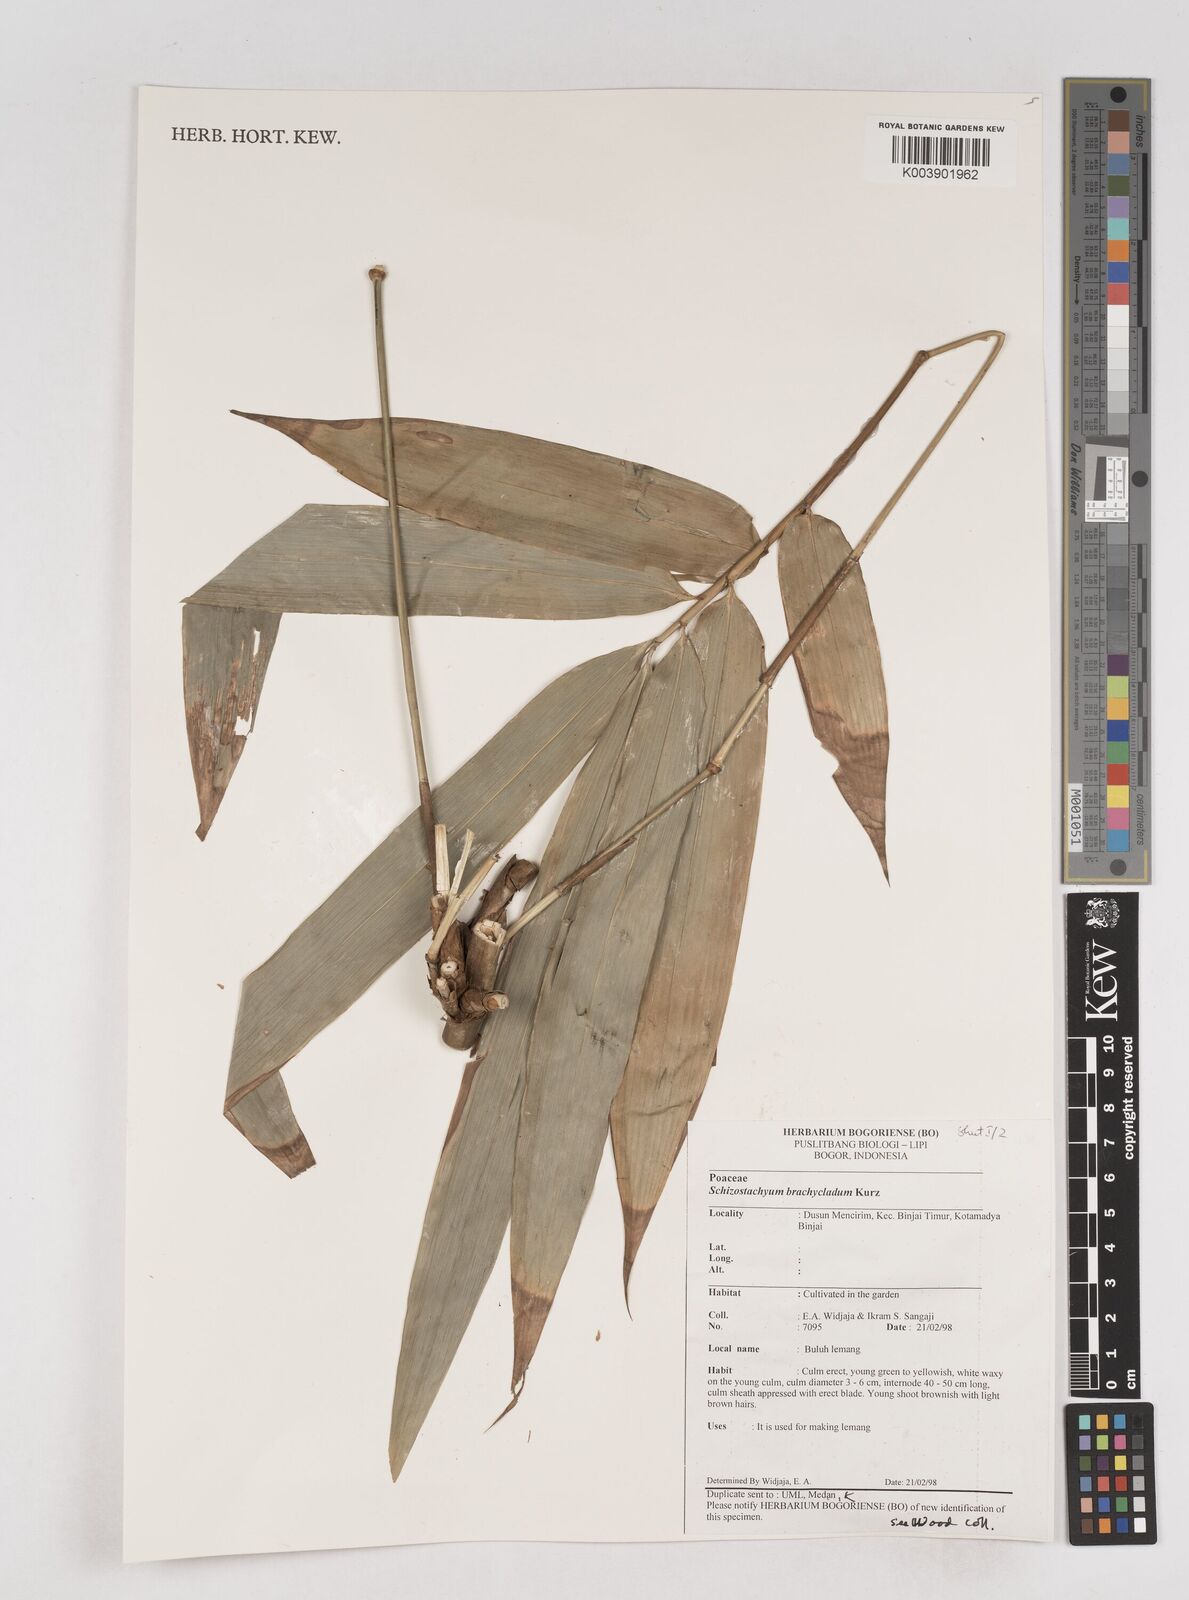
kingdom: Plantae
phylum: Tracheophyta
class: Liliopsida
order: Poales
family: Poaceae
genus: Schizostachyum
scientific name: Schizostachyum brachycladum
